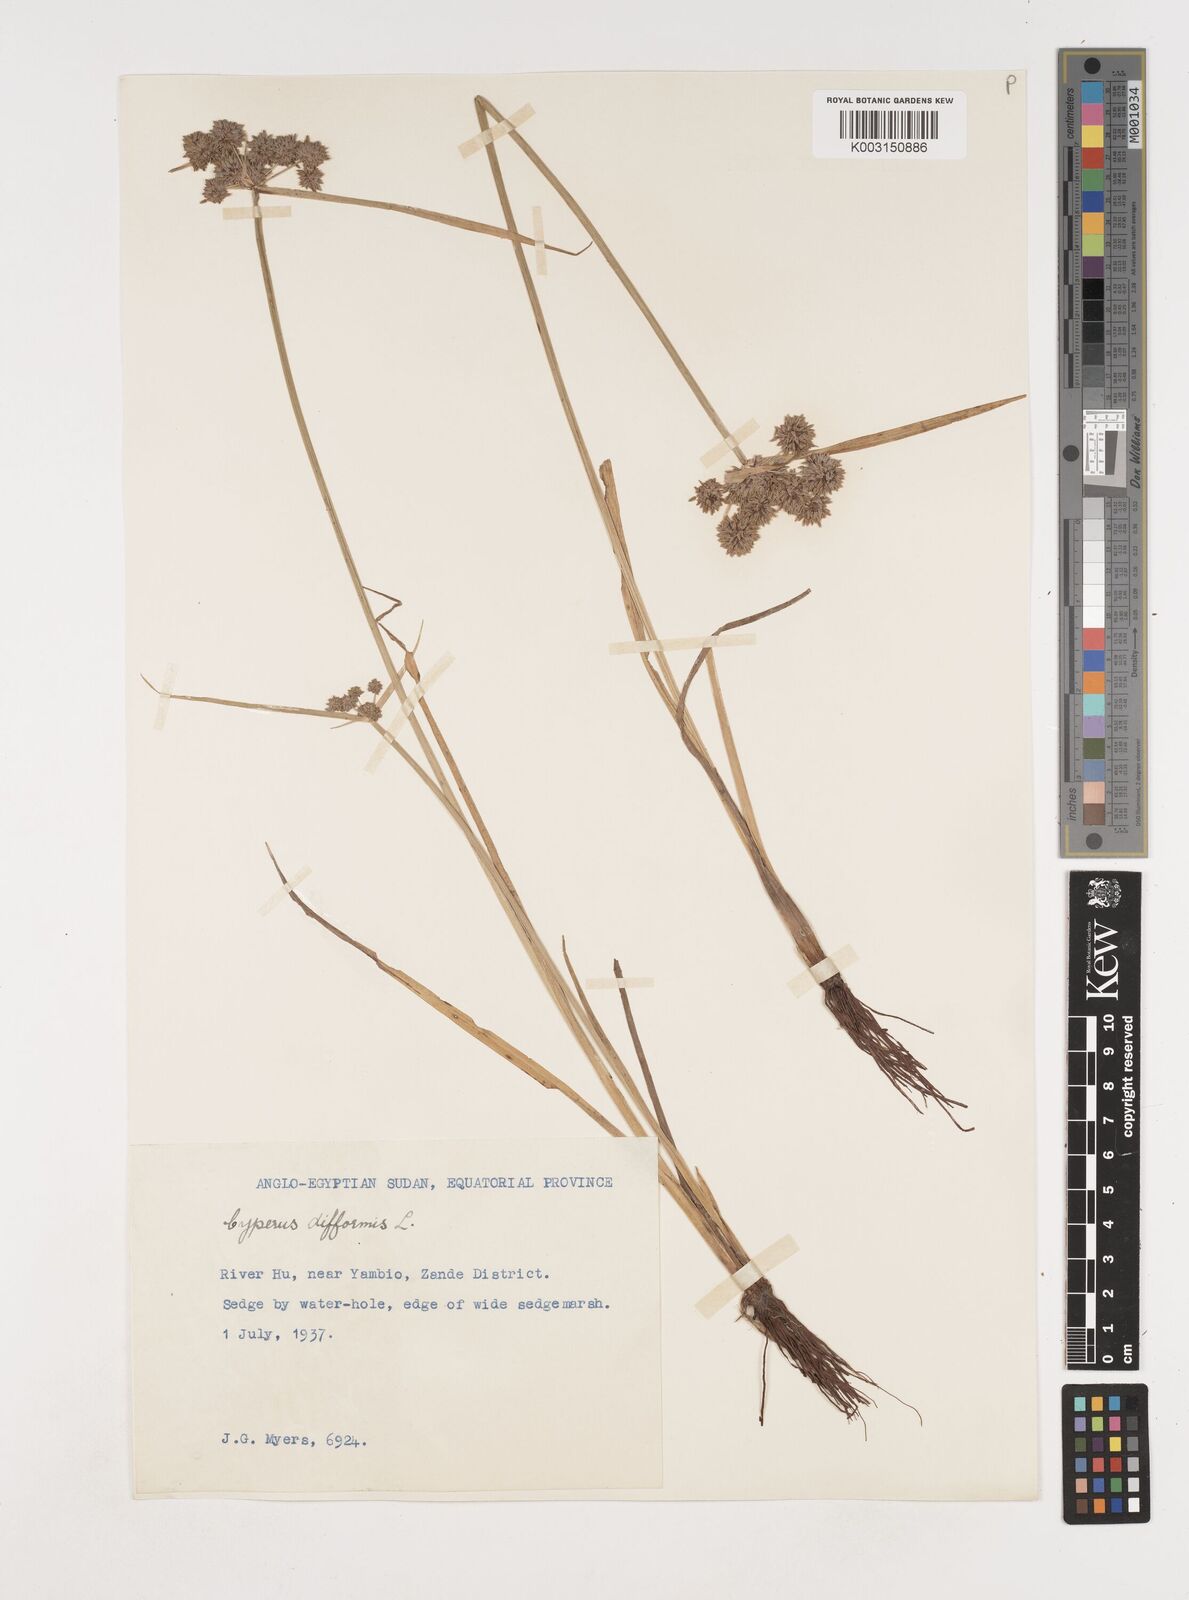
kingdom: Plantae
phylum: Tracheophyta
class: Liliopsida
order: Poales
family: Cyperaceae
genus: Cyperus
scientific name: Cyperus difformis
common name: Variable flatsedge
